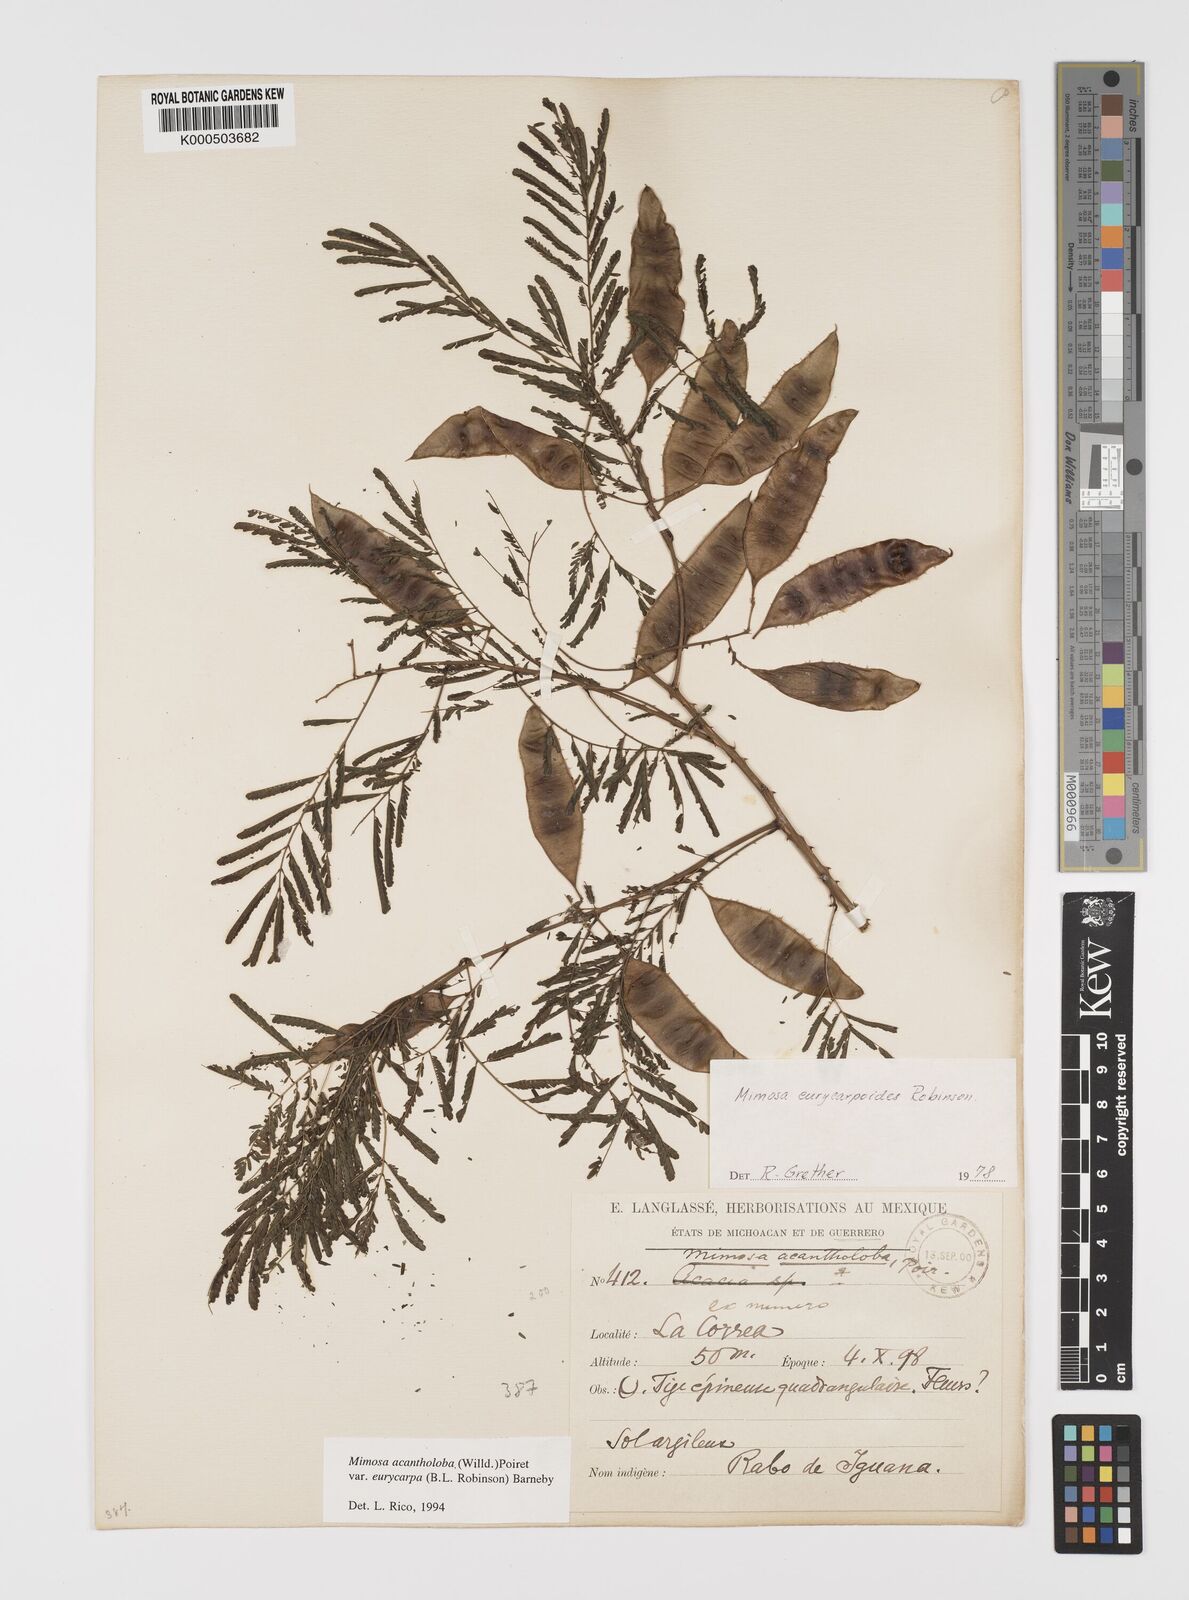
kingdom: Plantae
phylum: Tracheophyta
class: Magnoliopsida
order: Fabales
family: Fabaceae
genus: Mimosa
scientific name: Mimosa acantholoba
